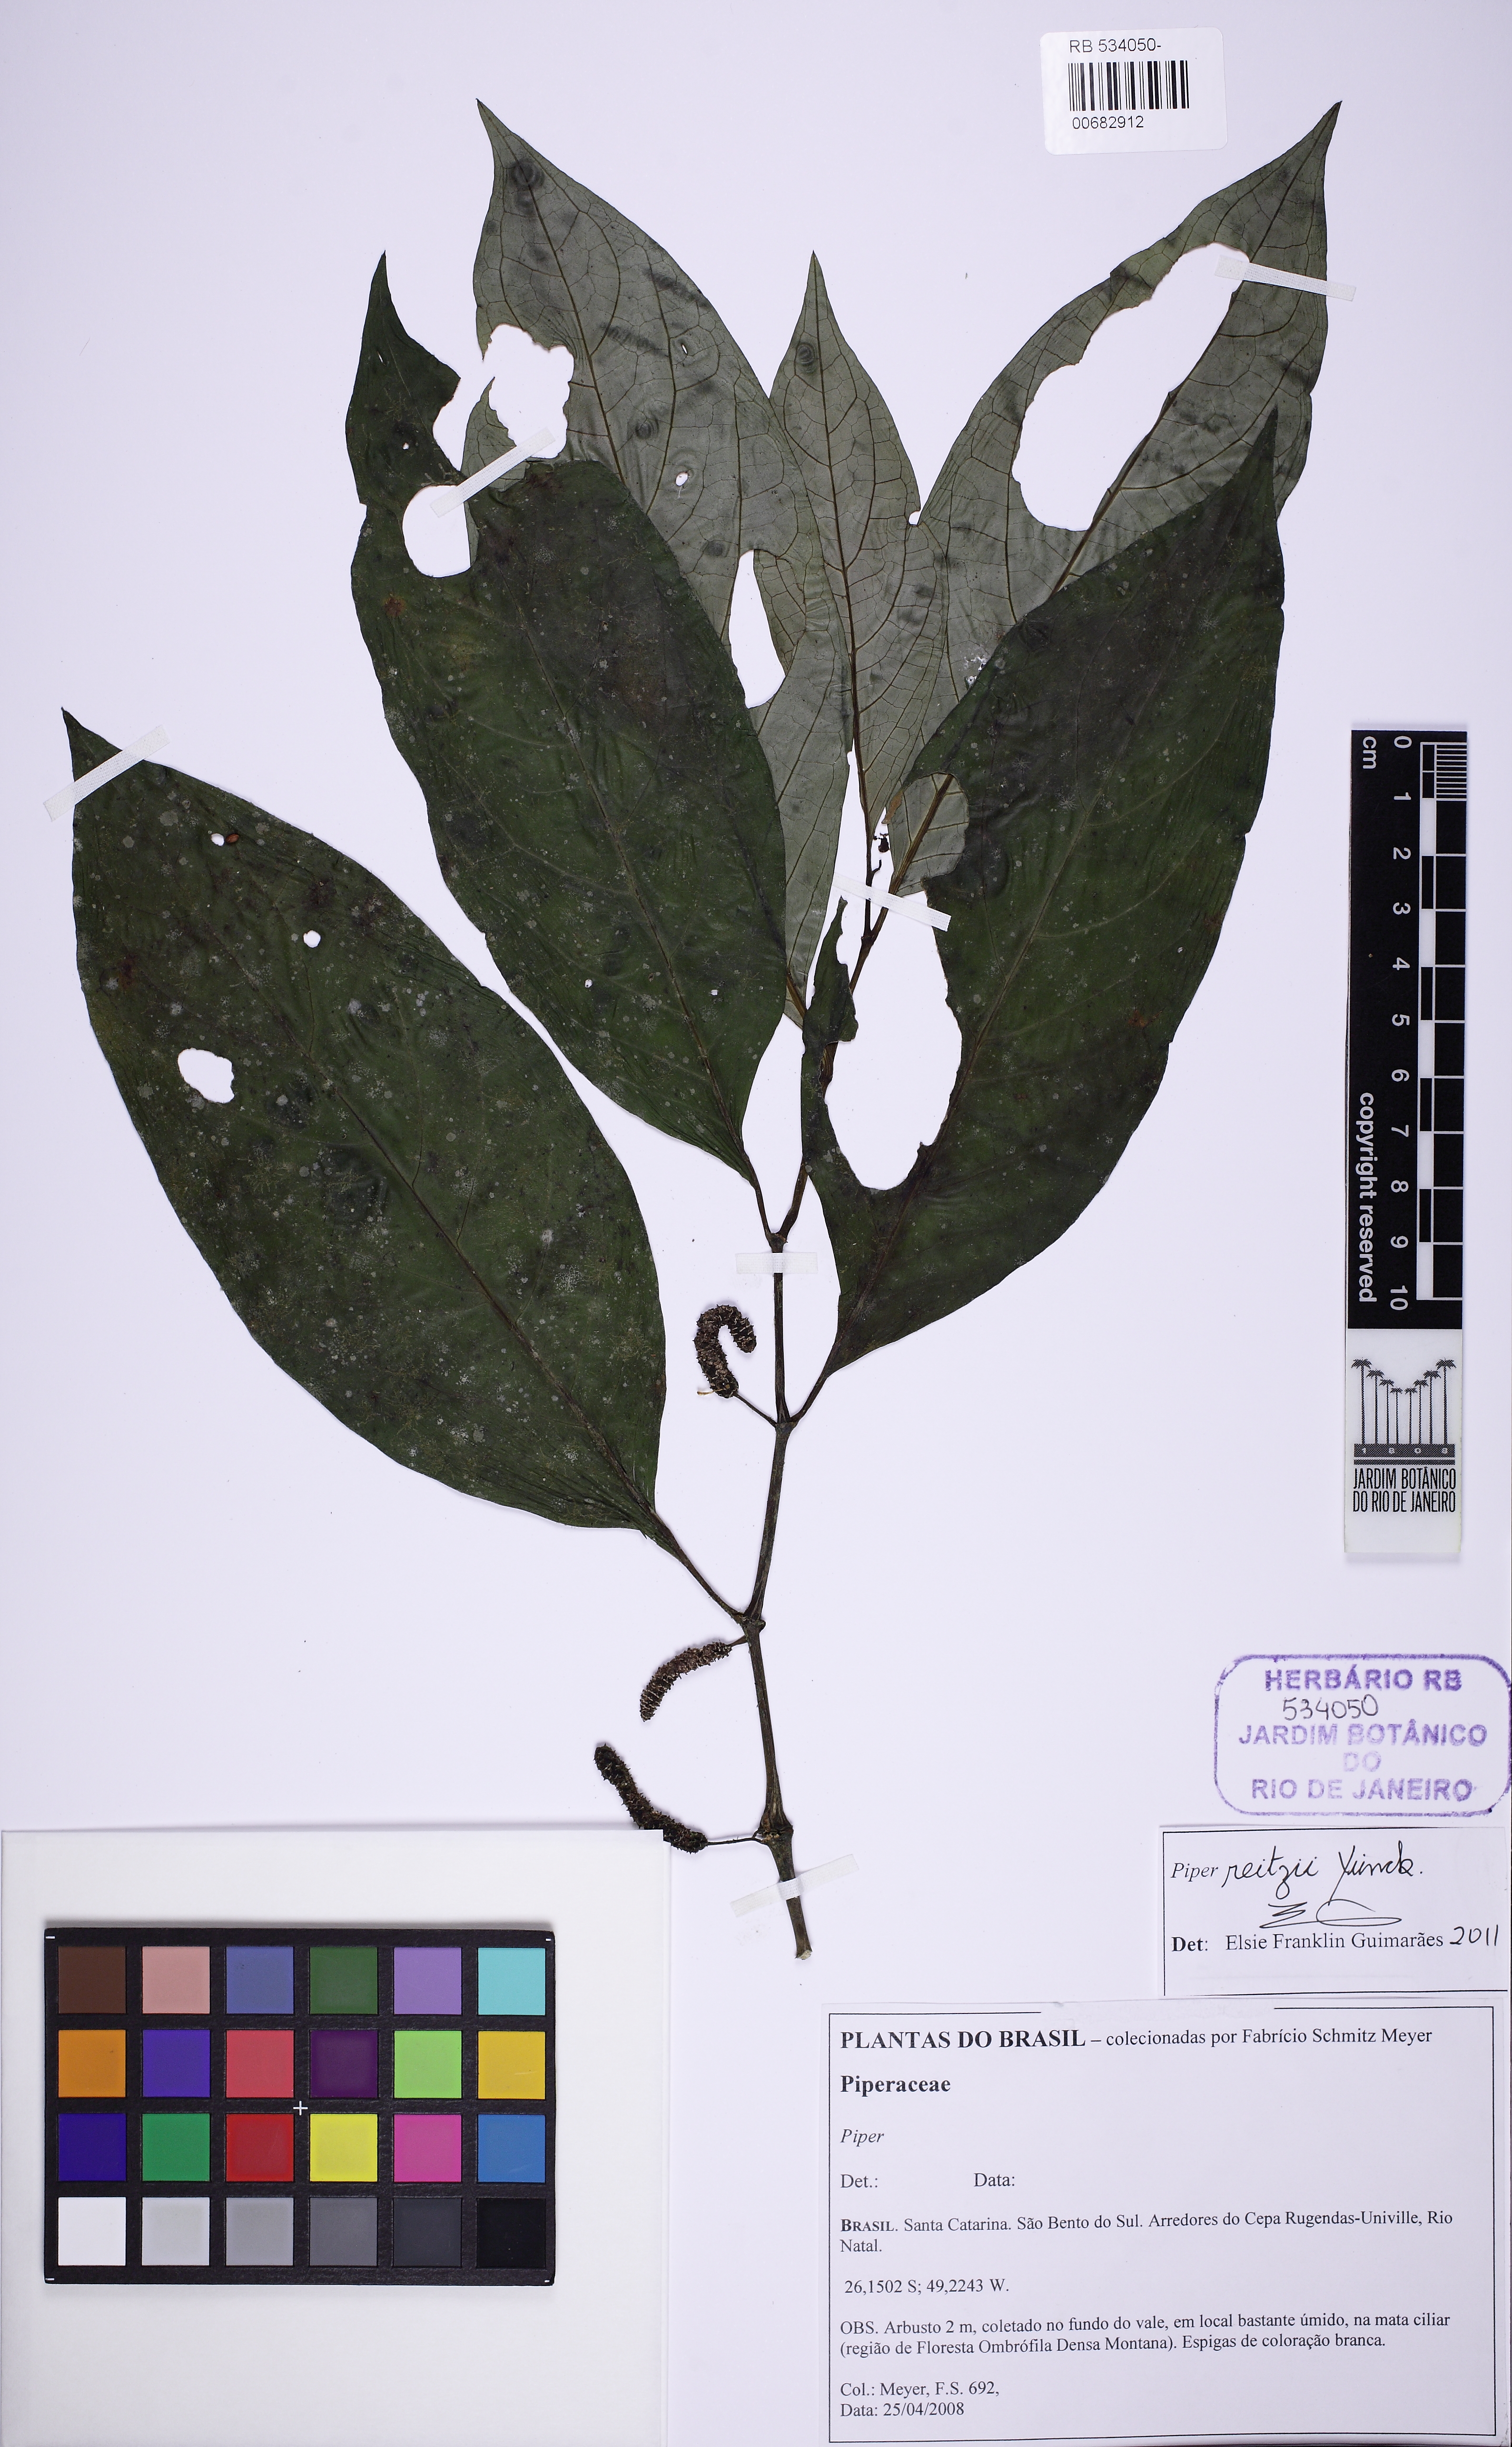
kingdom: Plantae
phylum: Tracheophyta
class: Magnoliopsida
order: Piperales
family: Piperaceae
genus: Piper
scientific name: Piper reitzii
